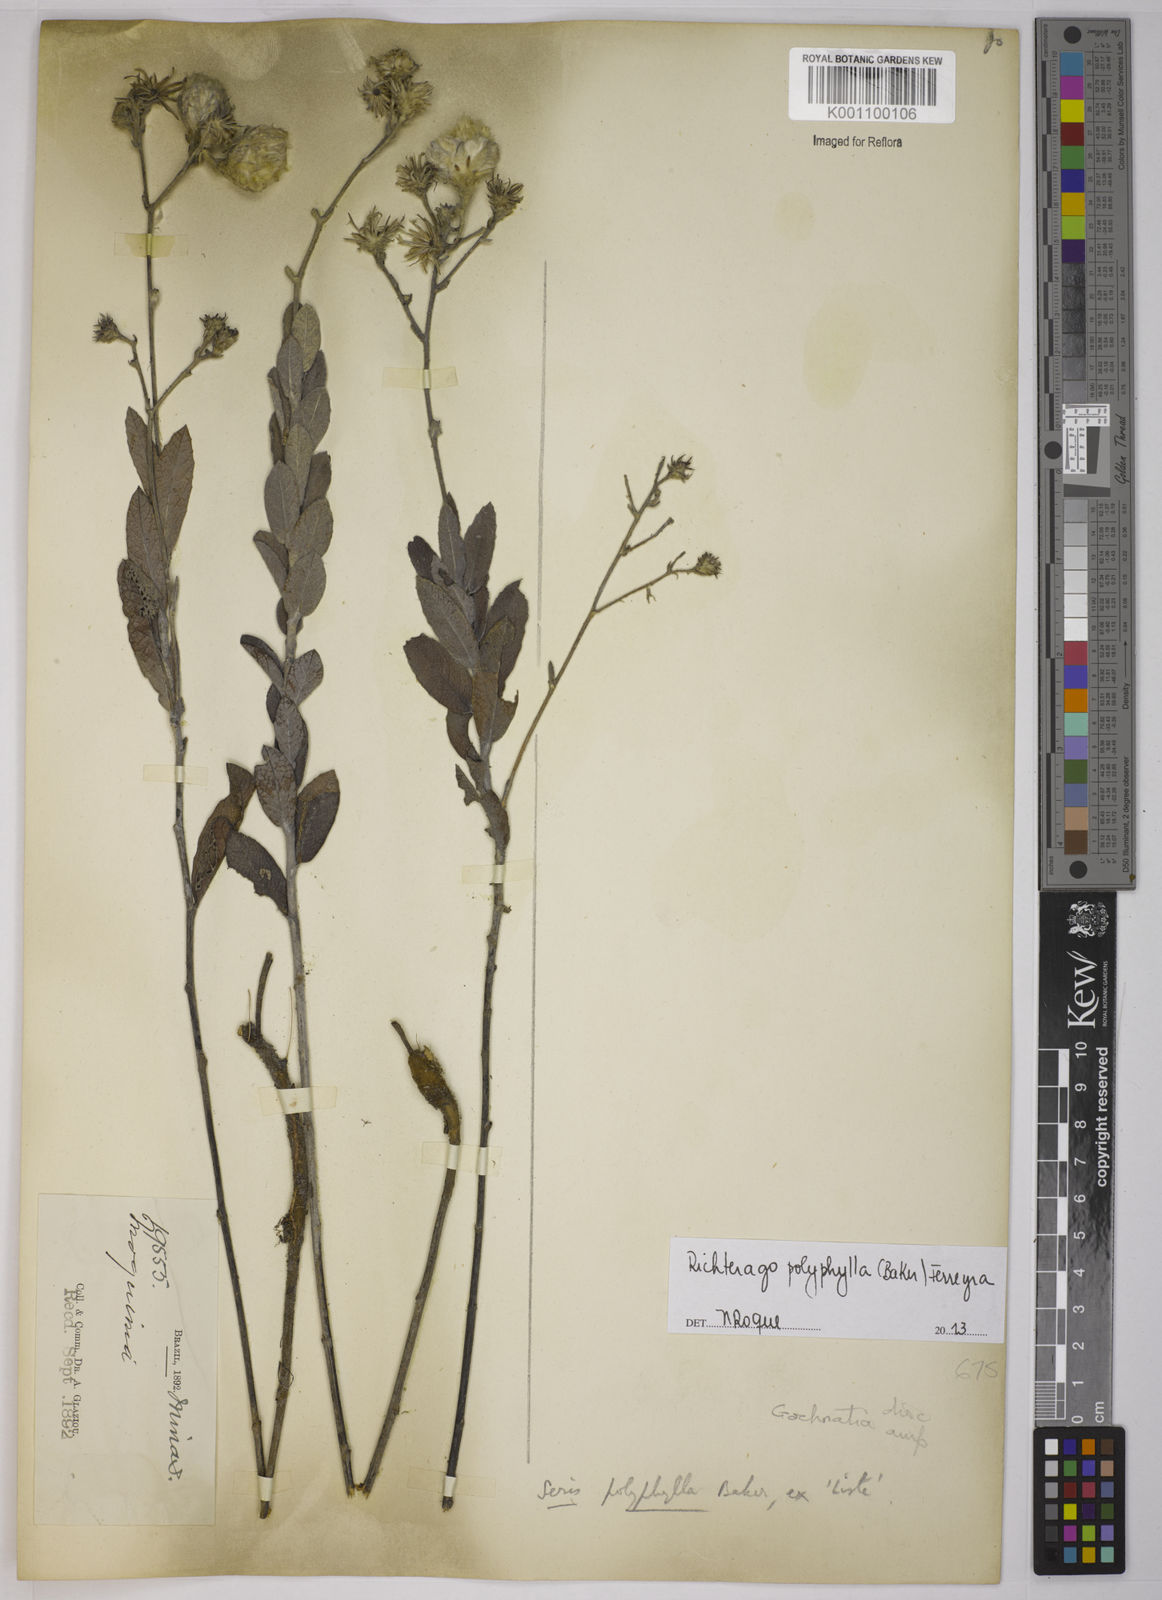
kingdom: Plantae
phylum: Tracheophyta
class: Magnoliopsida
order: Asterales
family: Asteraceae
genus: Richterago
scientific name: Richterago polyphylla
